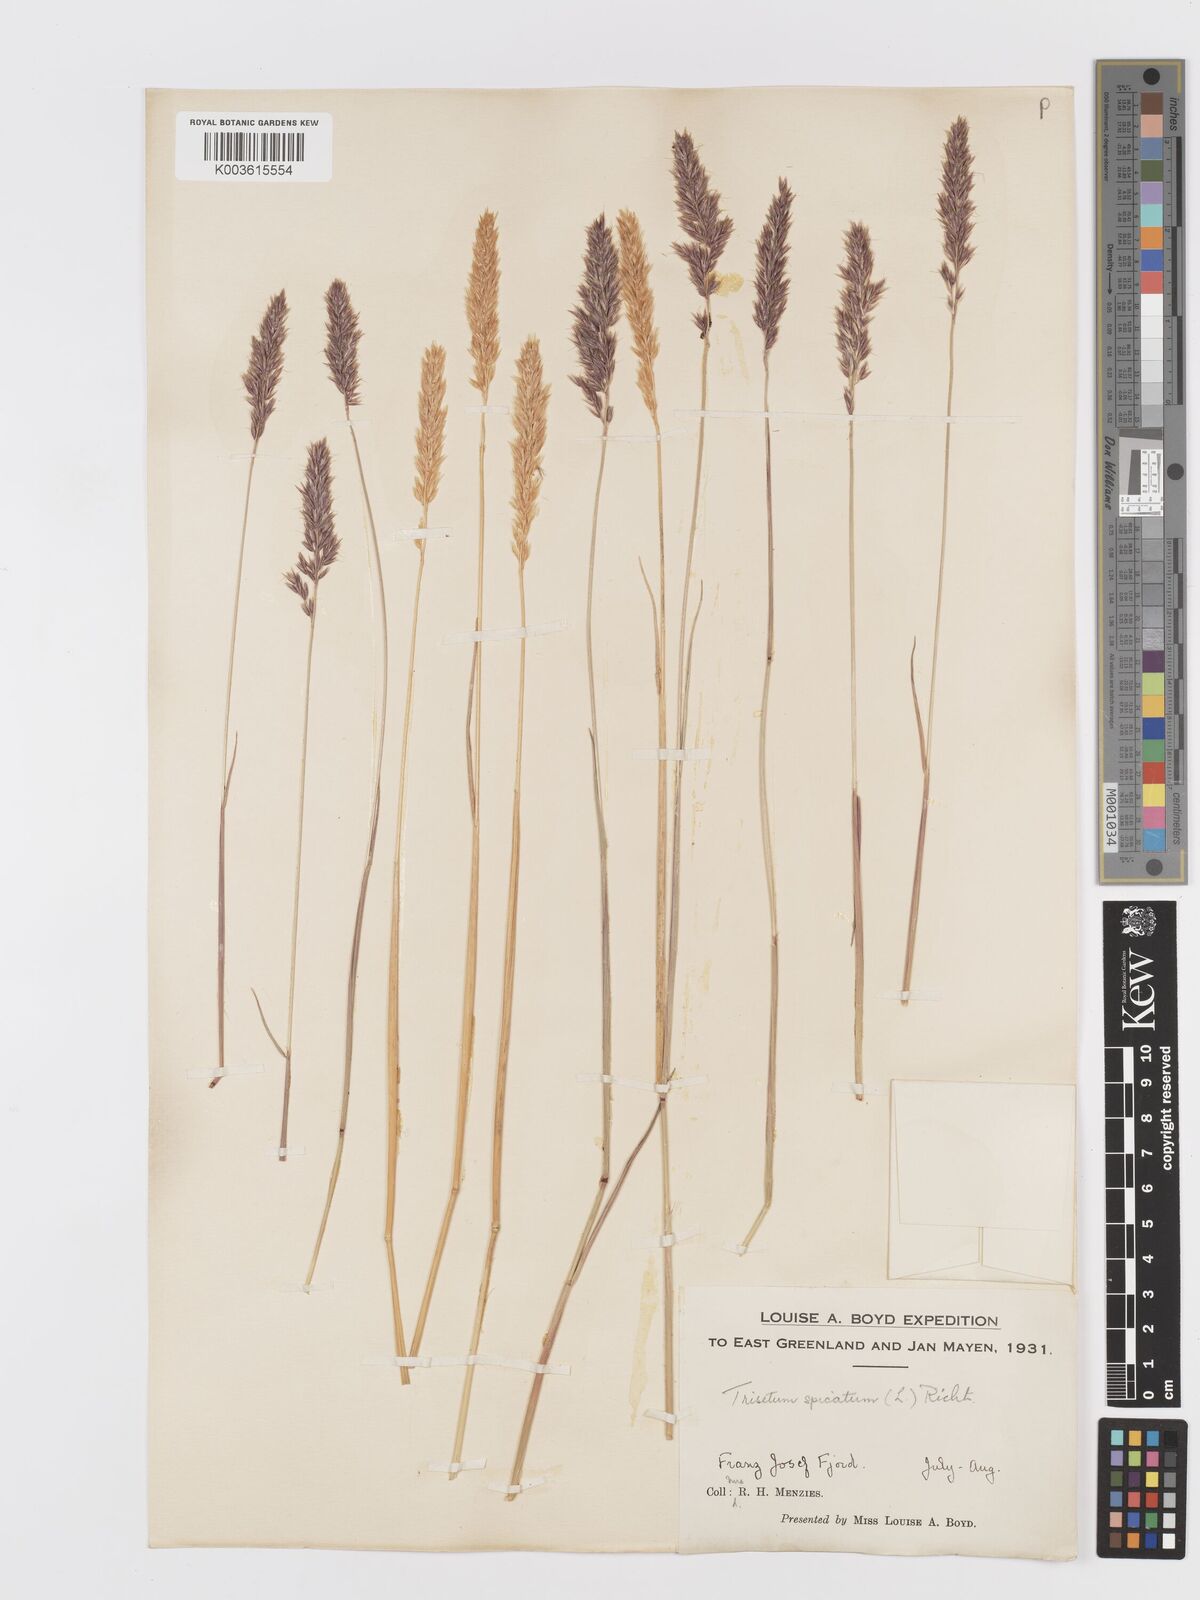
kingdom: Plantae
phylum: Tracheophyta
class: Liliopsida
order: Poales
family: Poaceae
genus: Koeleria
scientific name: Koeleria spicata
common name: Mountain trisetum
